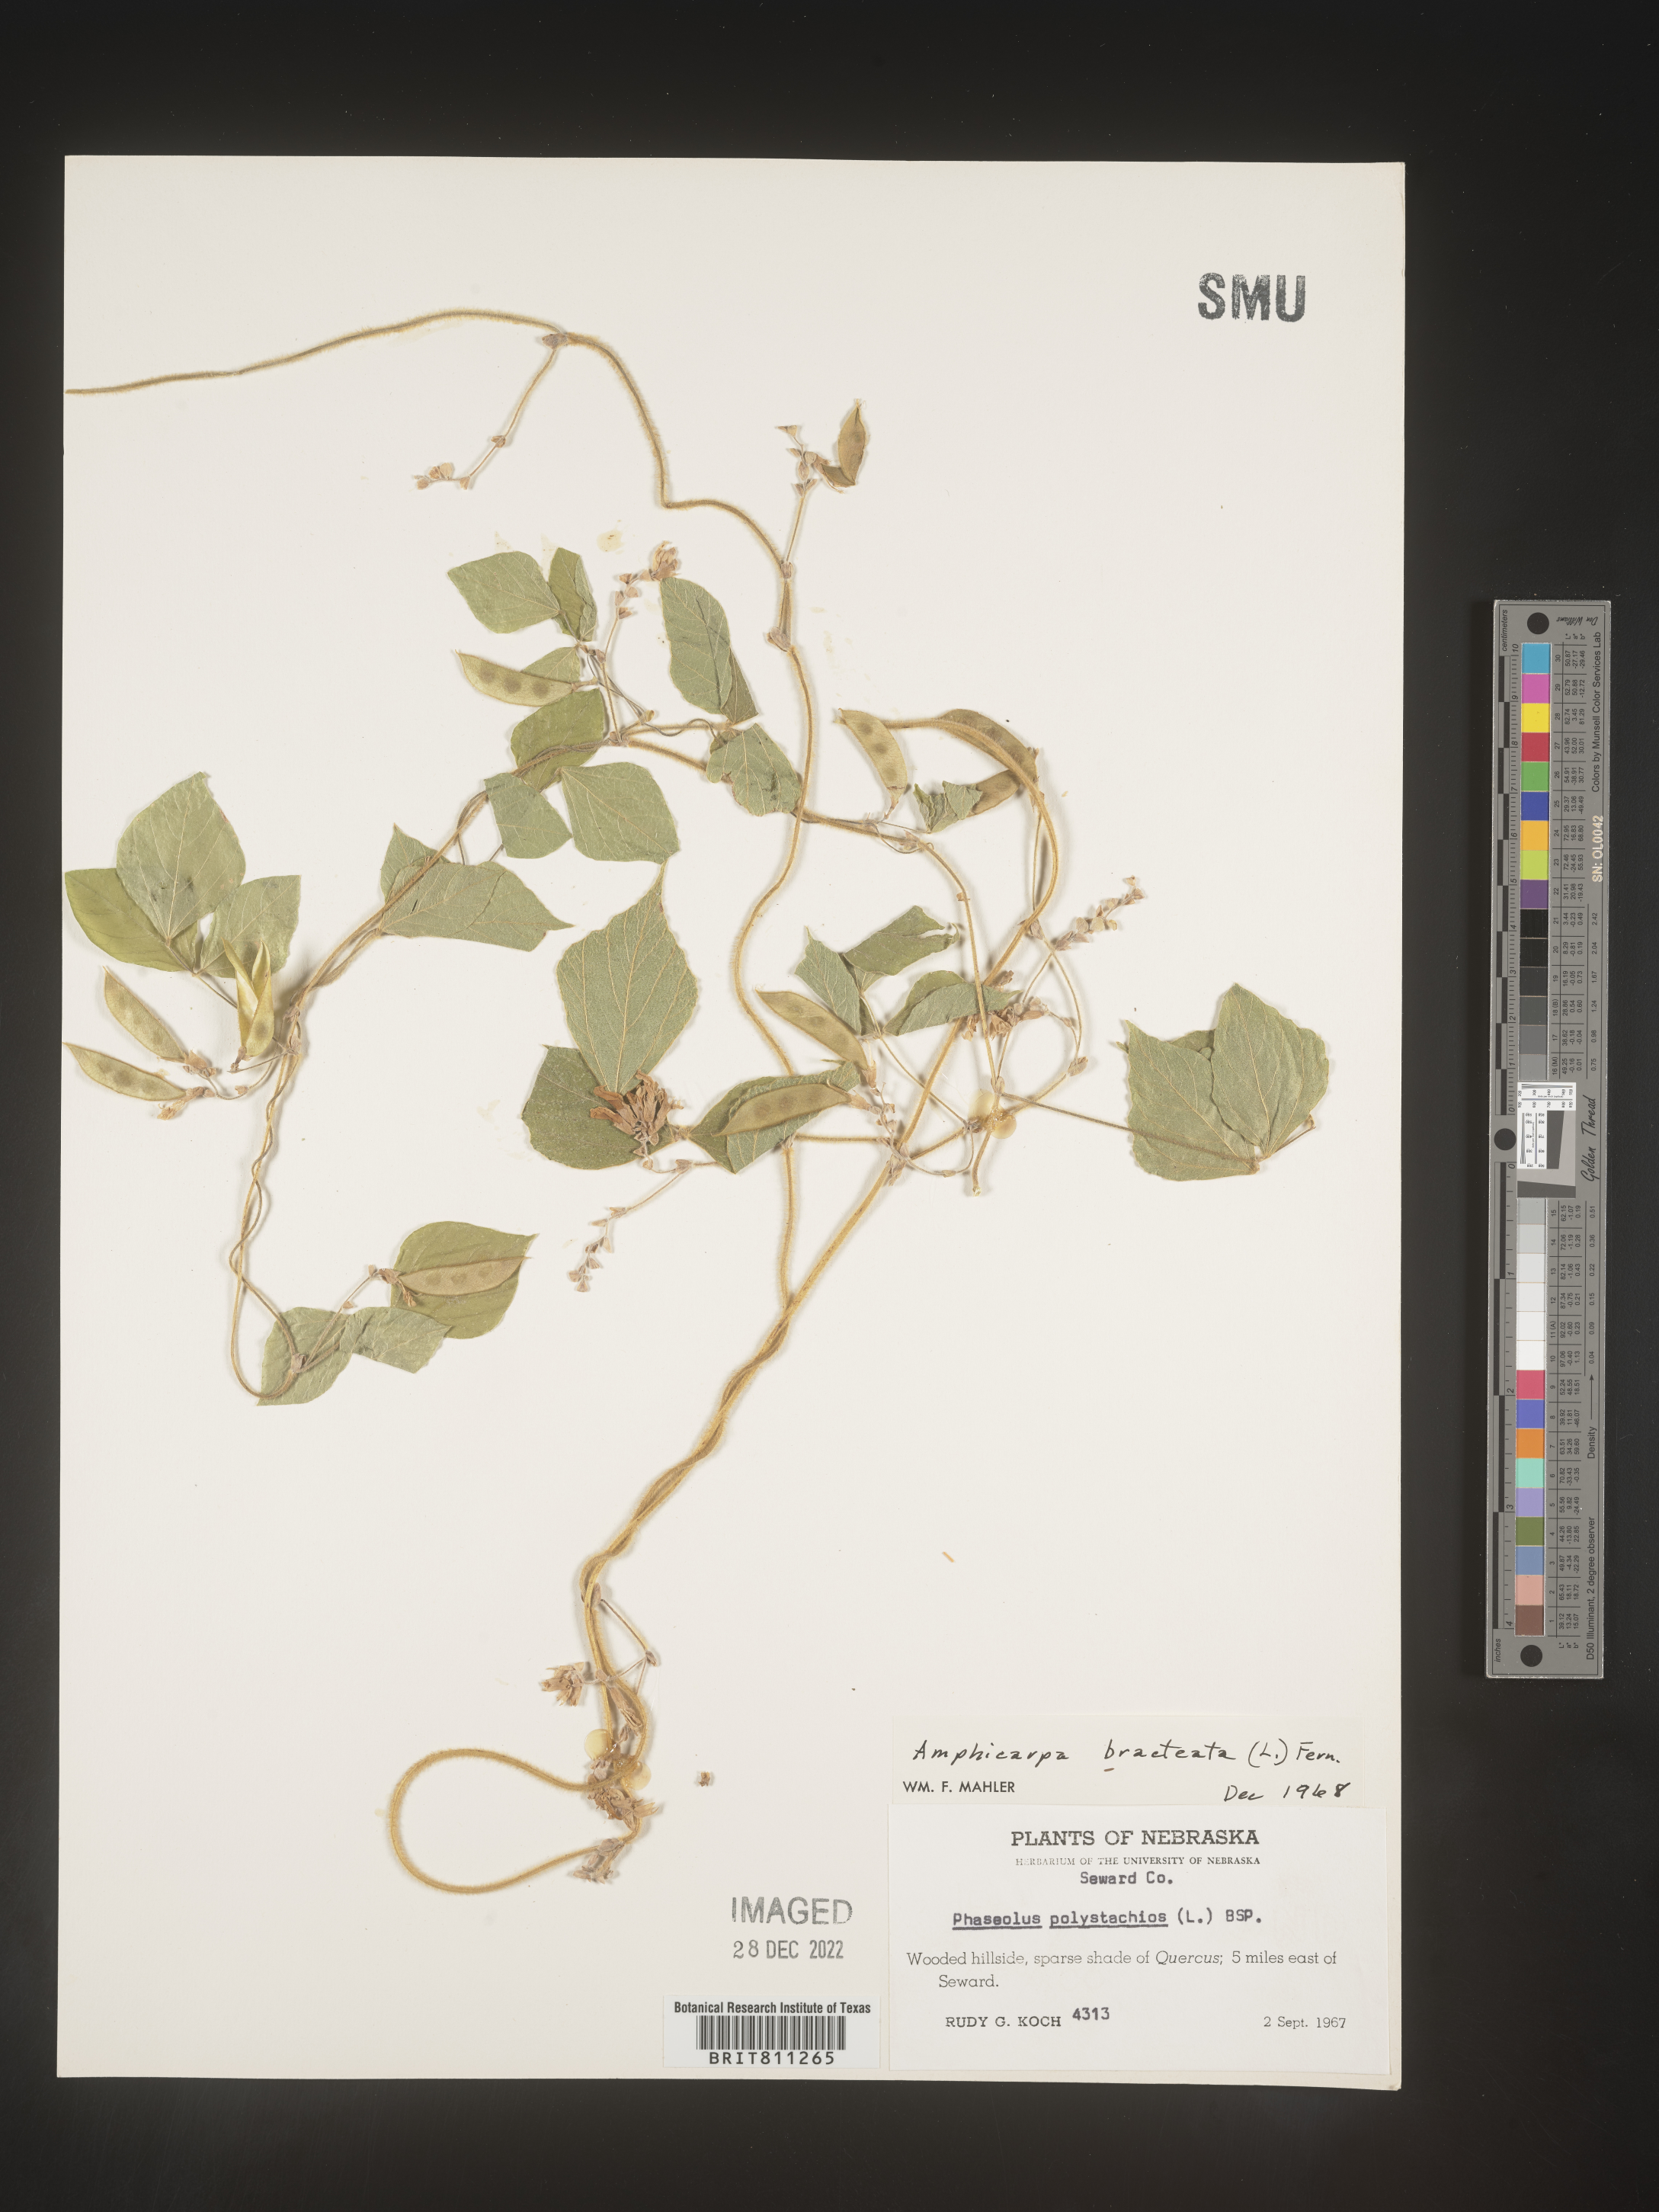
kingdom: Plantae
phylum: Tracheophyta
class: Magnoliopsida
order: Fabales
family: Fabaceae
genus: Amphicarpaea
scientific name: Amphicarpaea bracteata
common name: American hog peanut
